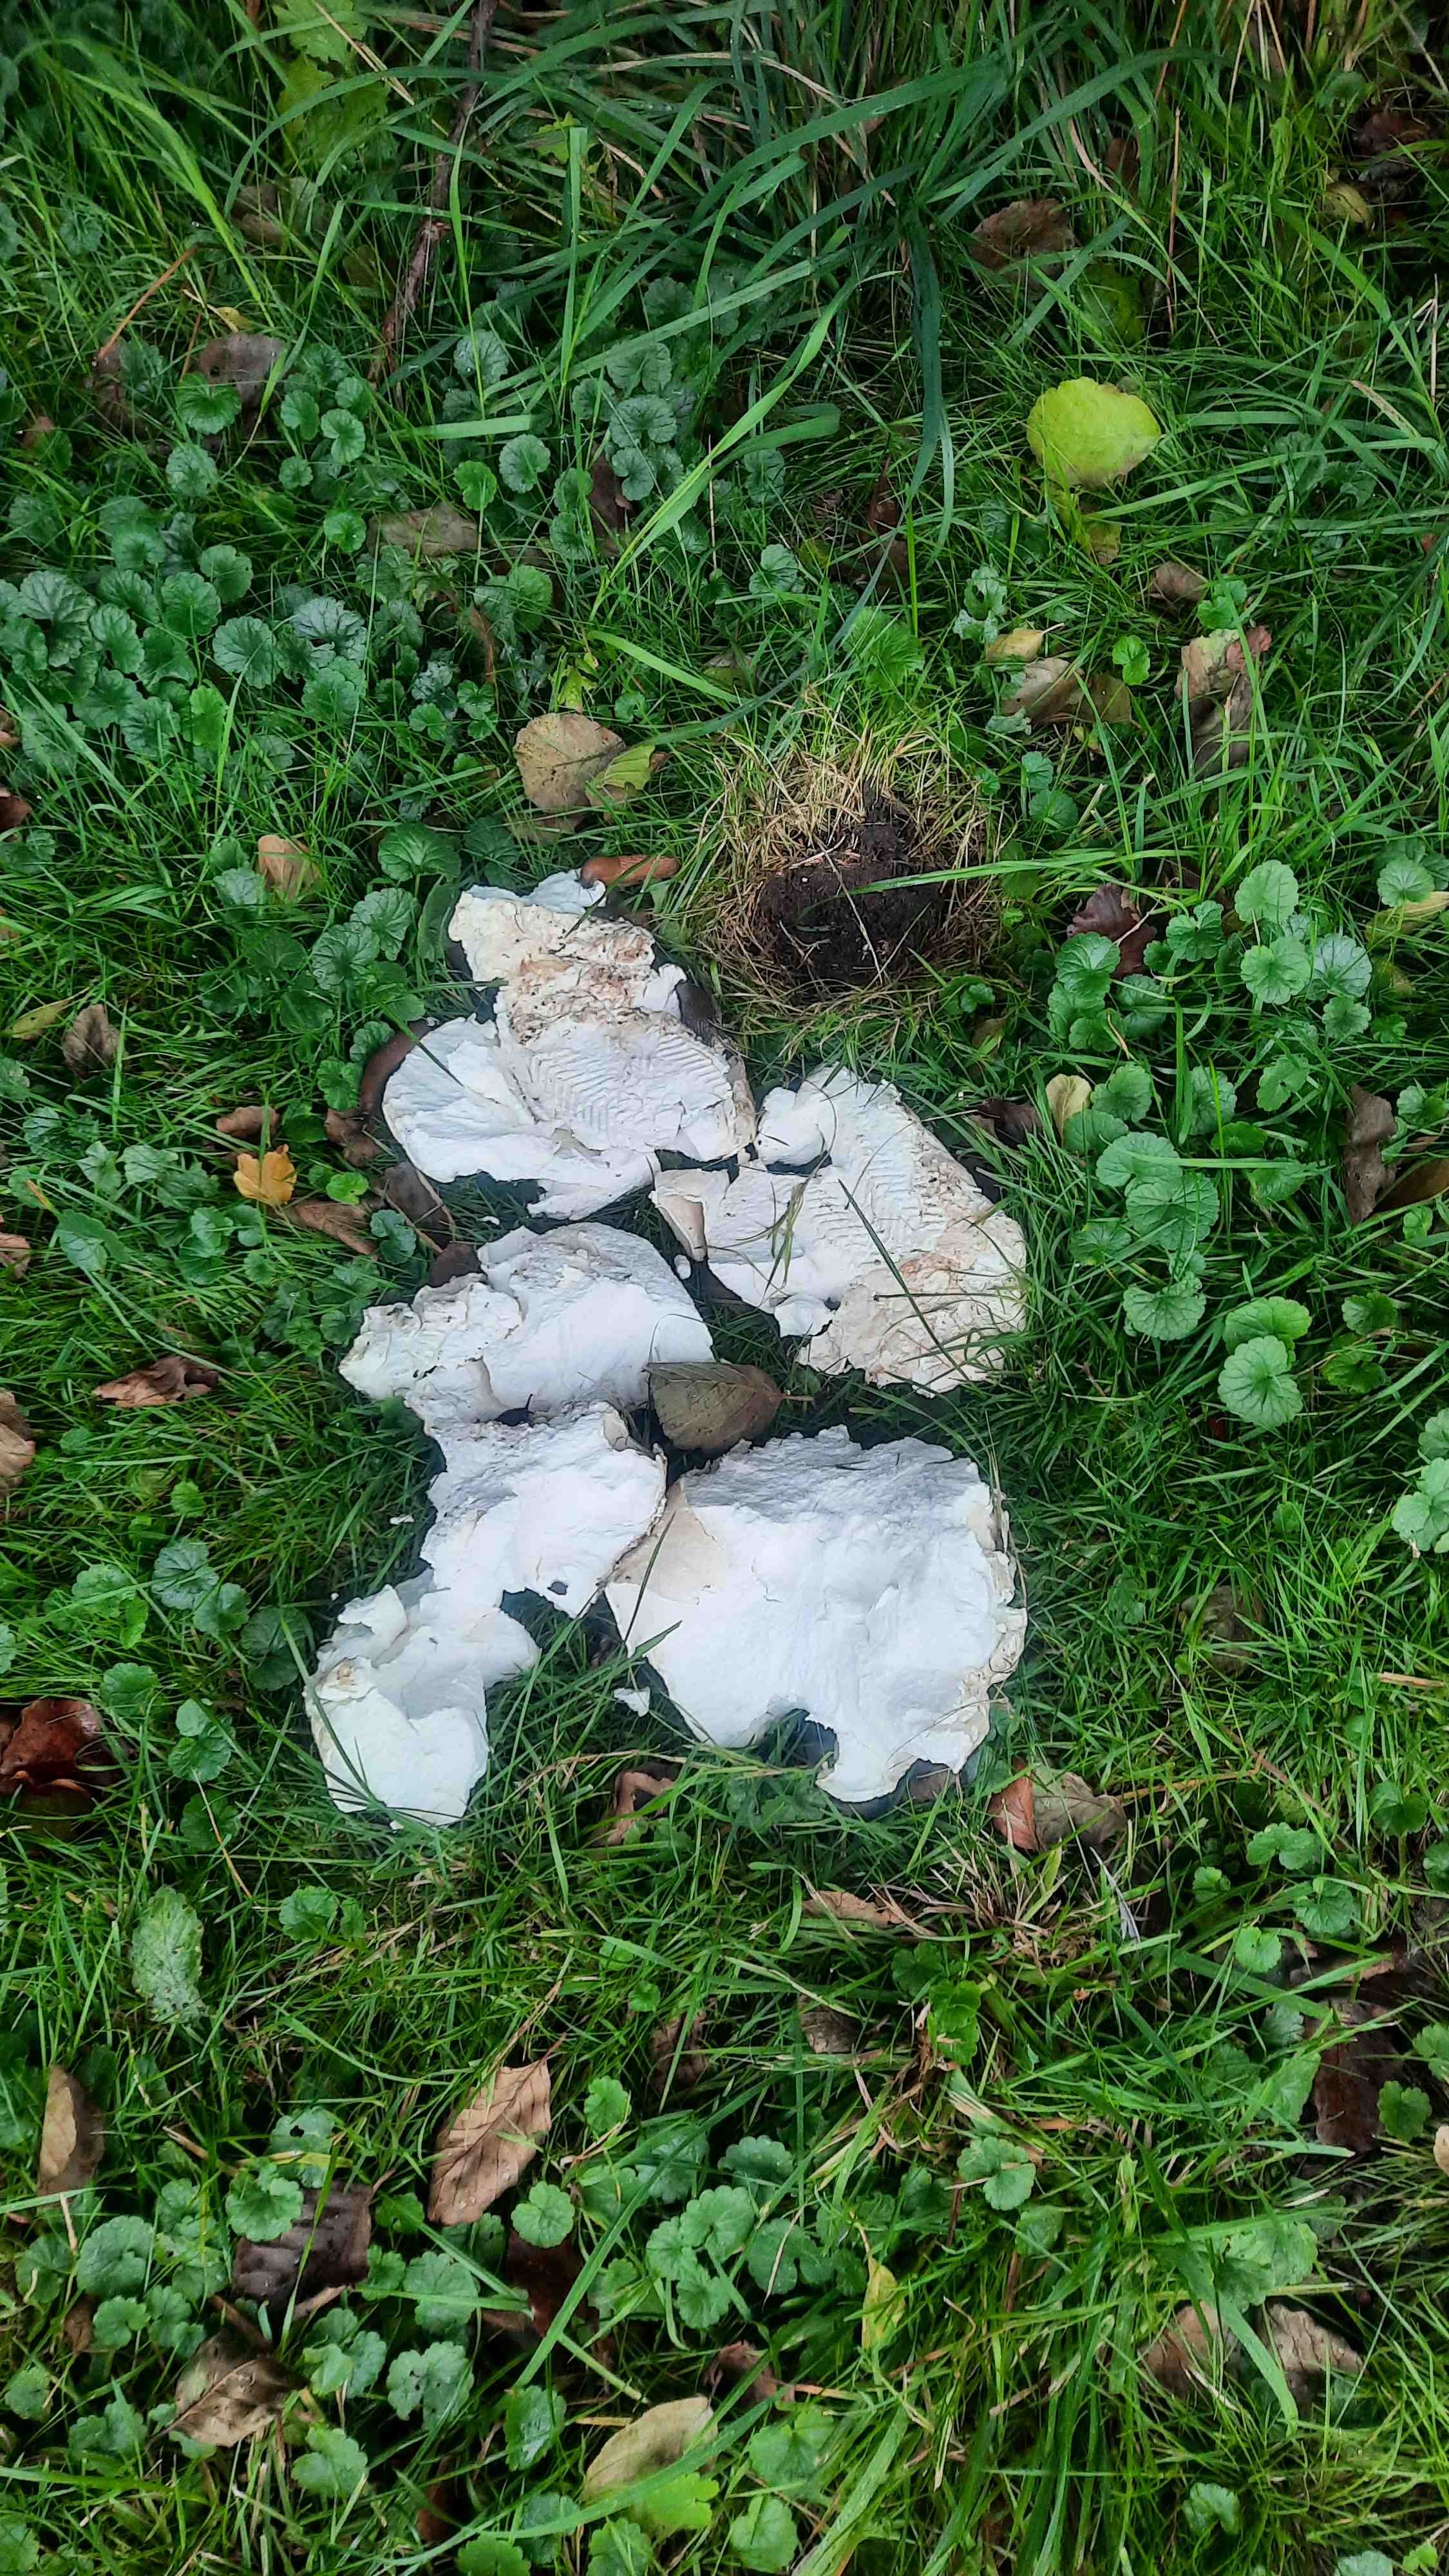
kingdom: Fungi
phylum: Basidiomycota
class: Agaricomycetes
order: Agaricales
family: Lycoperdaceae
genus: Calvatia
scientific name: Calvatia gigantea
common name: kæmpestøvbold
